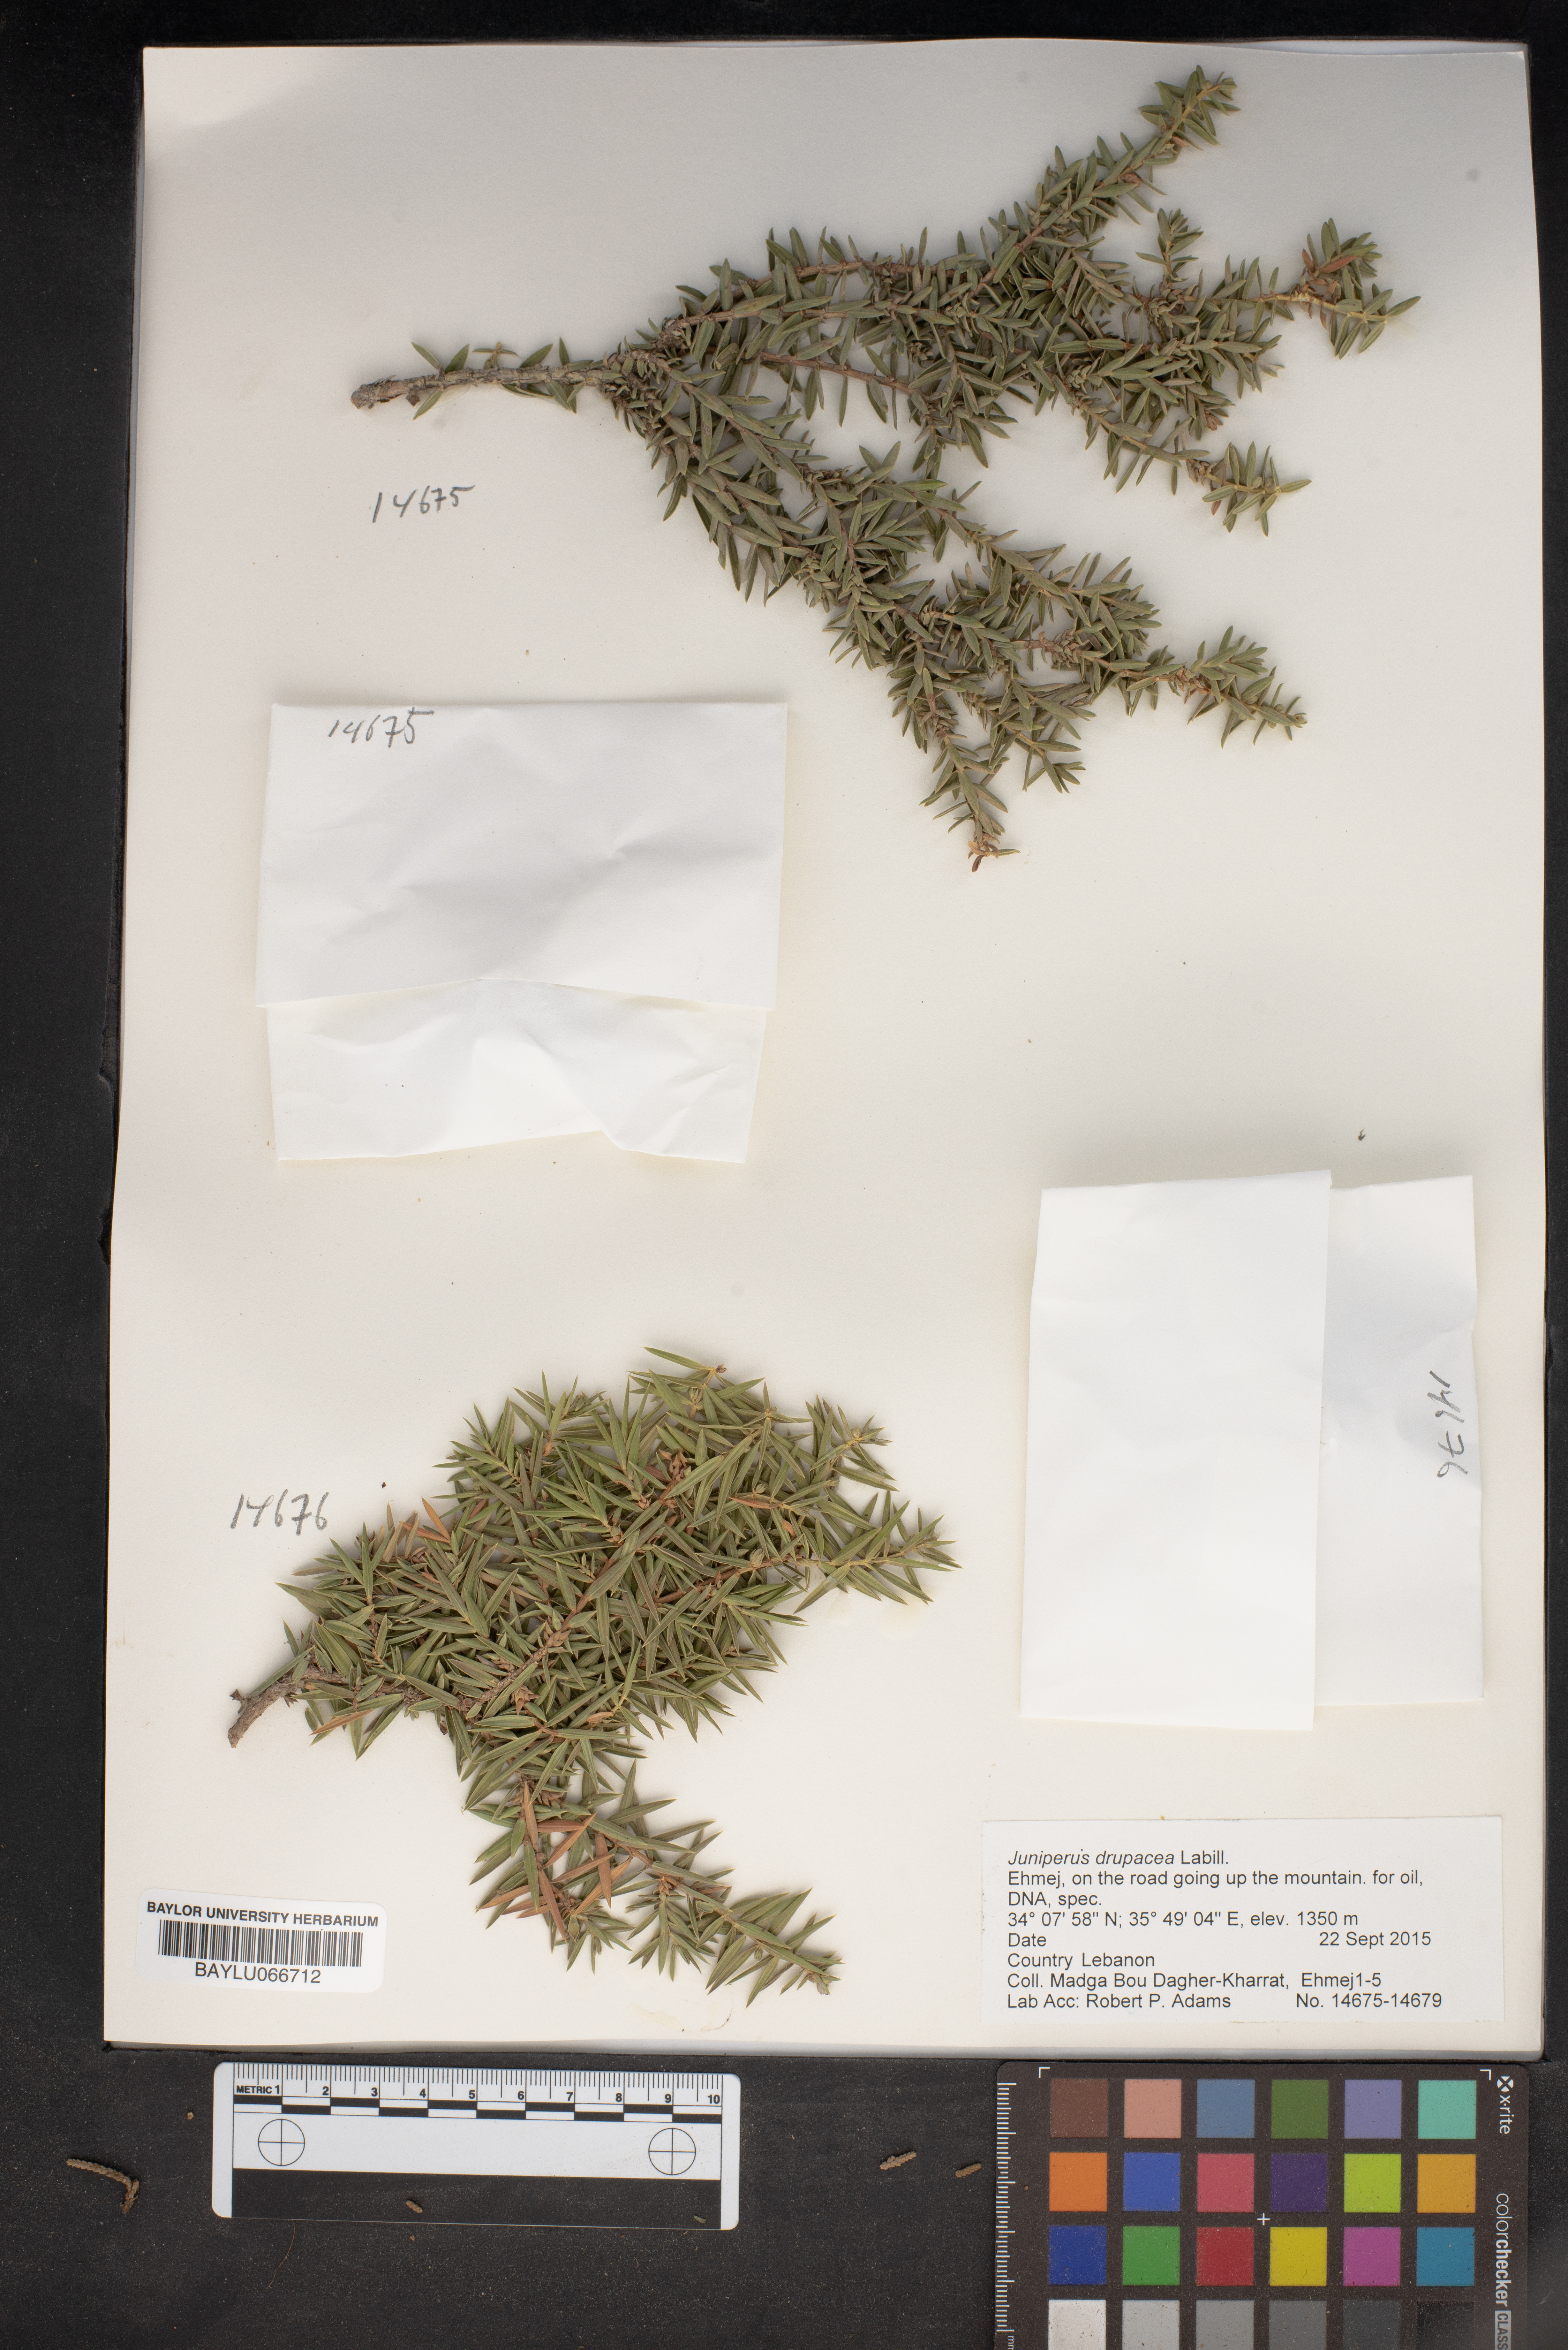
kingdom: Plantae
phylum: Tracheophyta
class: Pinopsida
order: Pinales
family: Cupressaceae
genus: Juniperus
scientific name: Juniperus drupacea
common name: Syrian juniper
